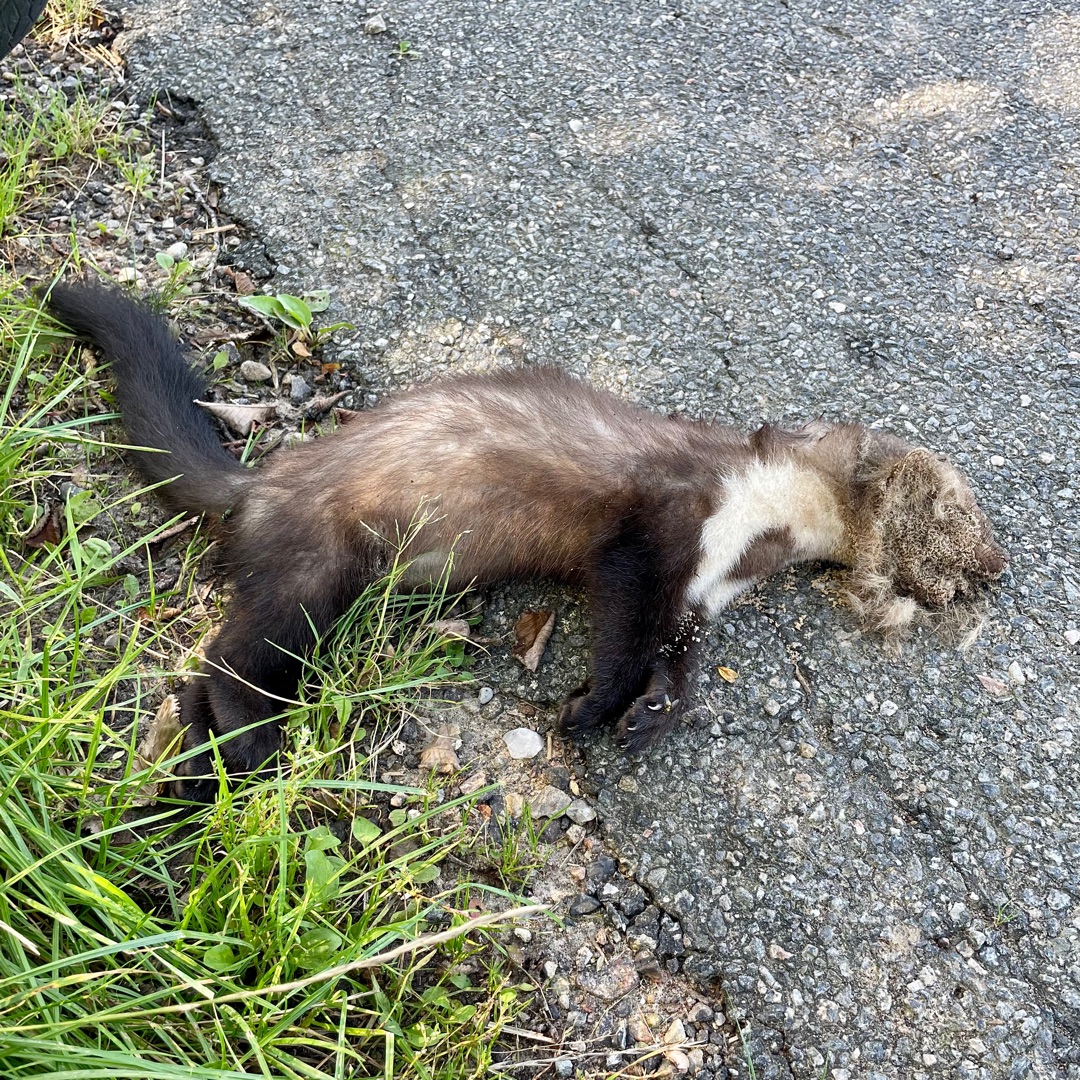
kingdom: Animalia
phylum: Chordata
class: Mammalia
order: Carnivora
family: Mustelidae
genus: Martes
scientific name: Martes foina
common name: Husmår
